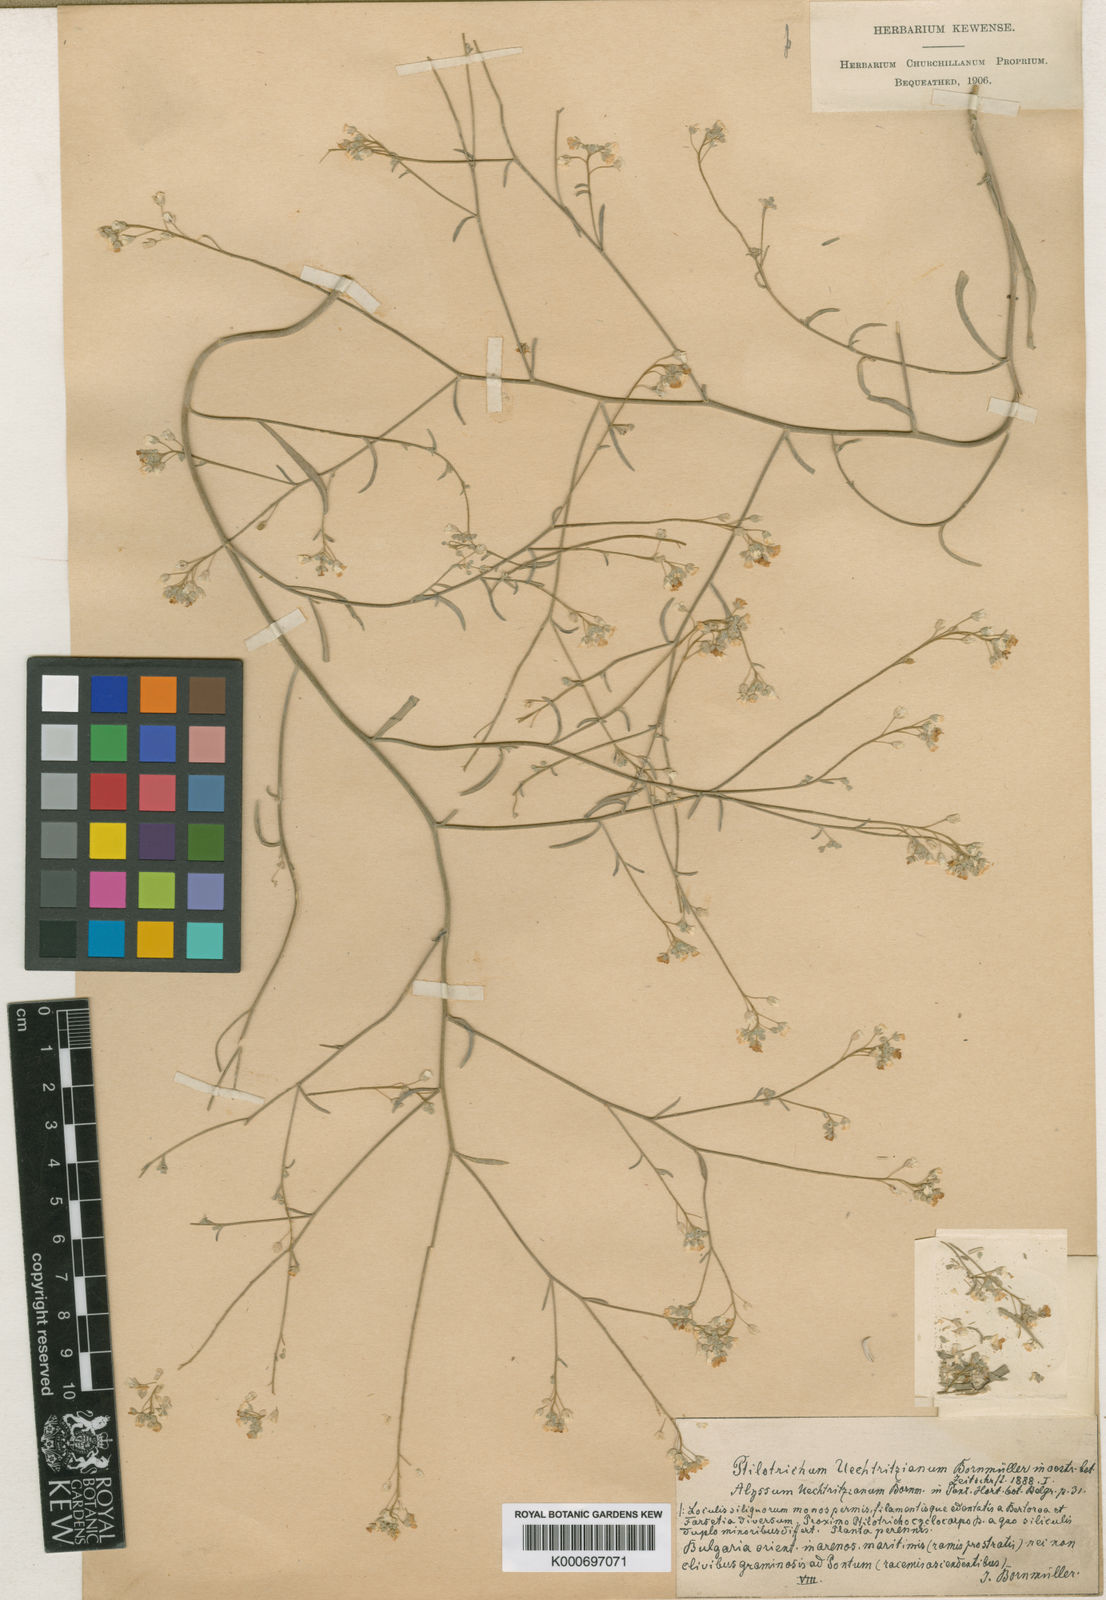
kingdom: Plantae
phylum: Tracheophyta
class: Magnoliopsida
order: Brassicales
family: Brassicaceae
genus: Lepidotrichum
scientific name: Lepidotrichum uechtritzianum
